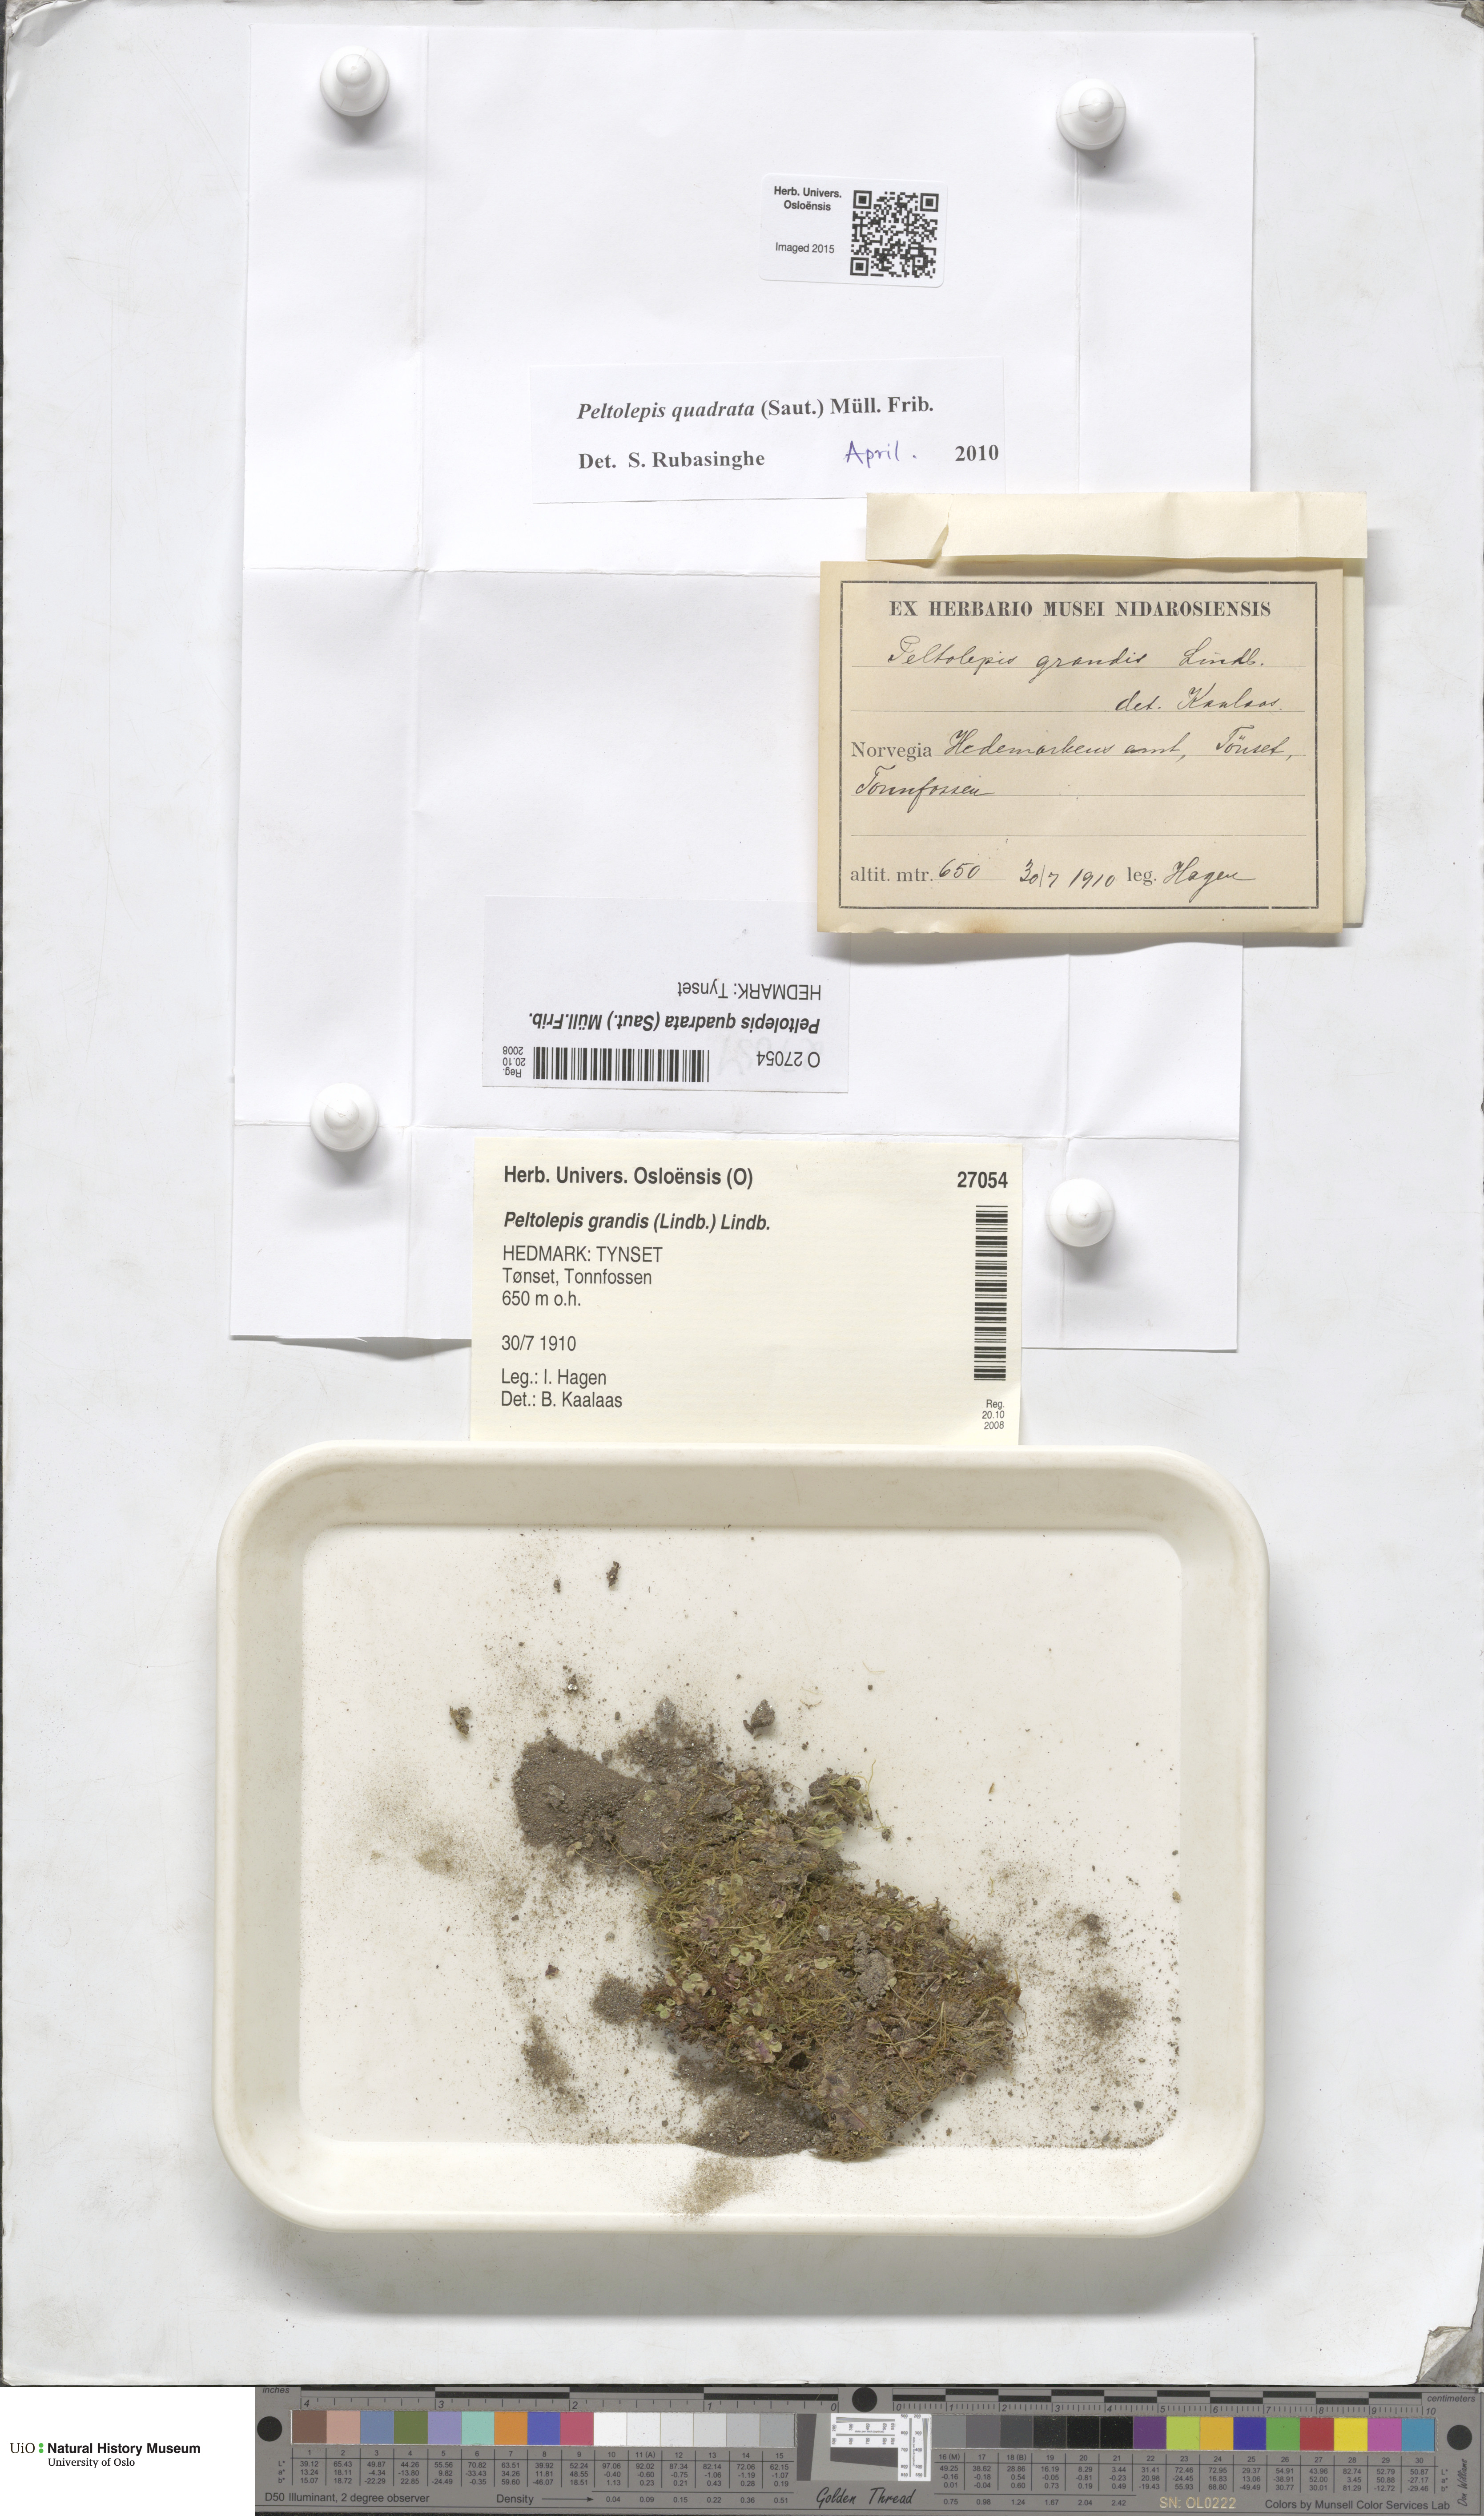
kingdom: Plantae
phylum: Marchantiophyta
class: Marchantiopsida
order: Marchantiales
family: Cleveaceae
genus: Peltolepis
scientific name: Peltolepis quadrata
